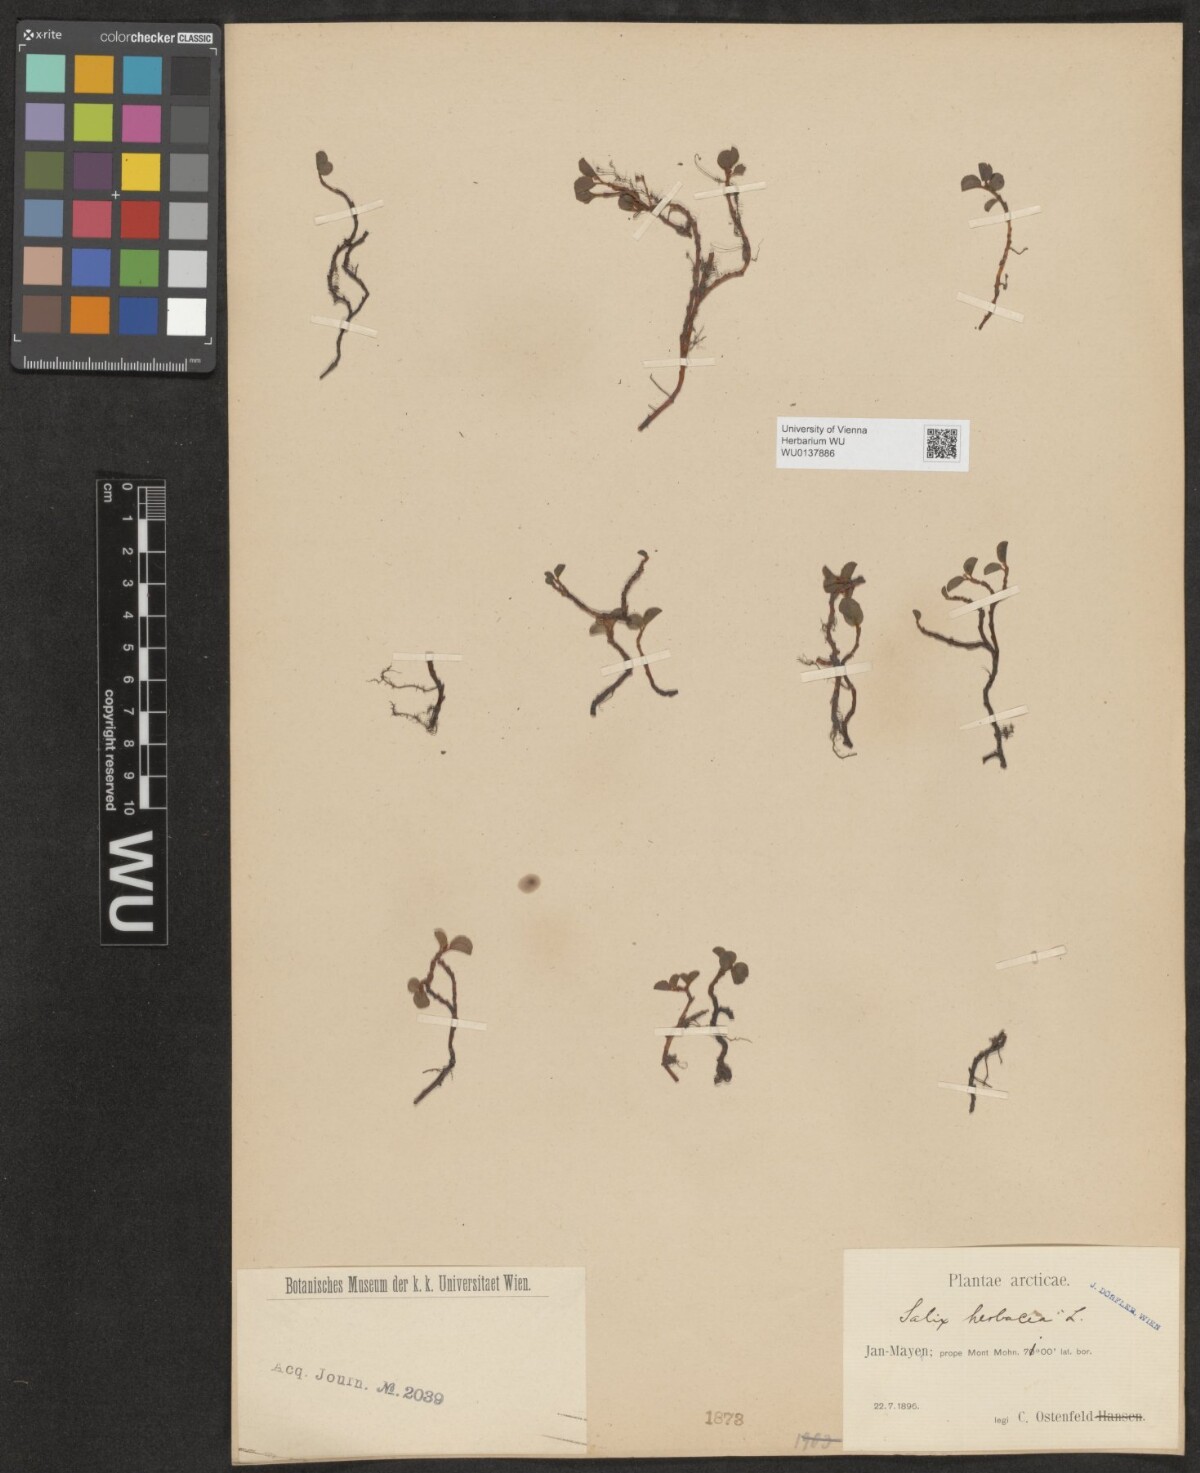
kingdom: Plantae
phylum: Tracheophyta
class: Magnoliopsida
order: Malpighiales
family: Salicaceae
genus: Salix
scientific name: Salix herbacea
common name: Dwarf willow
